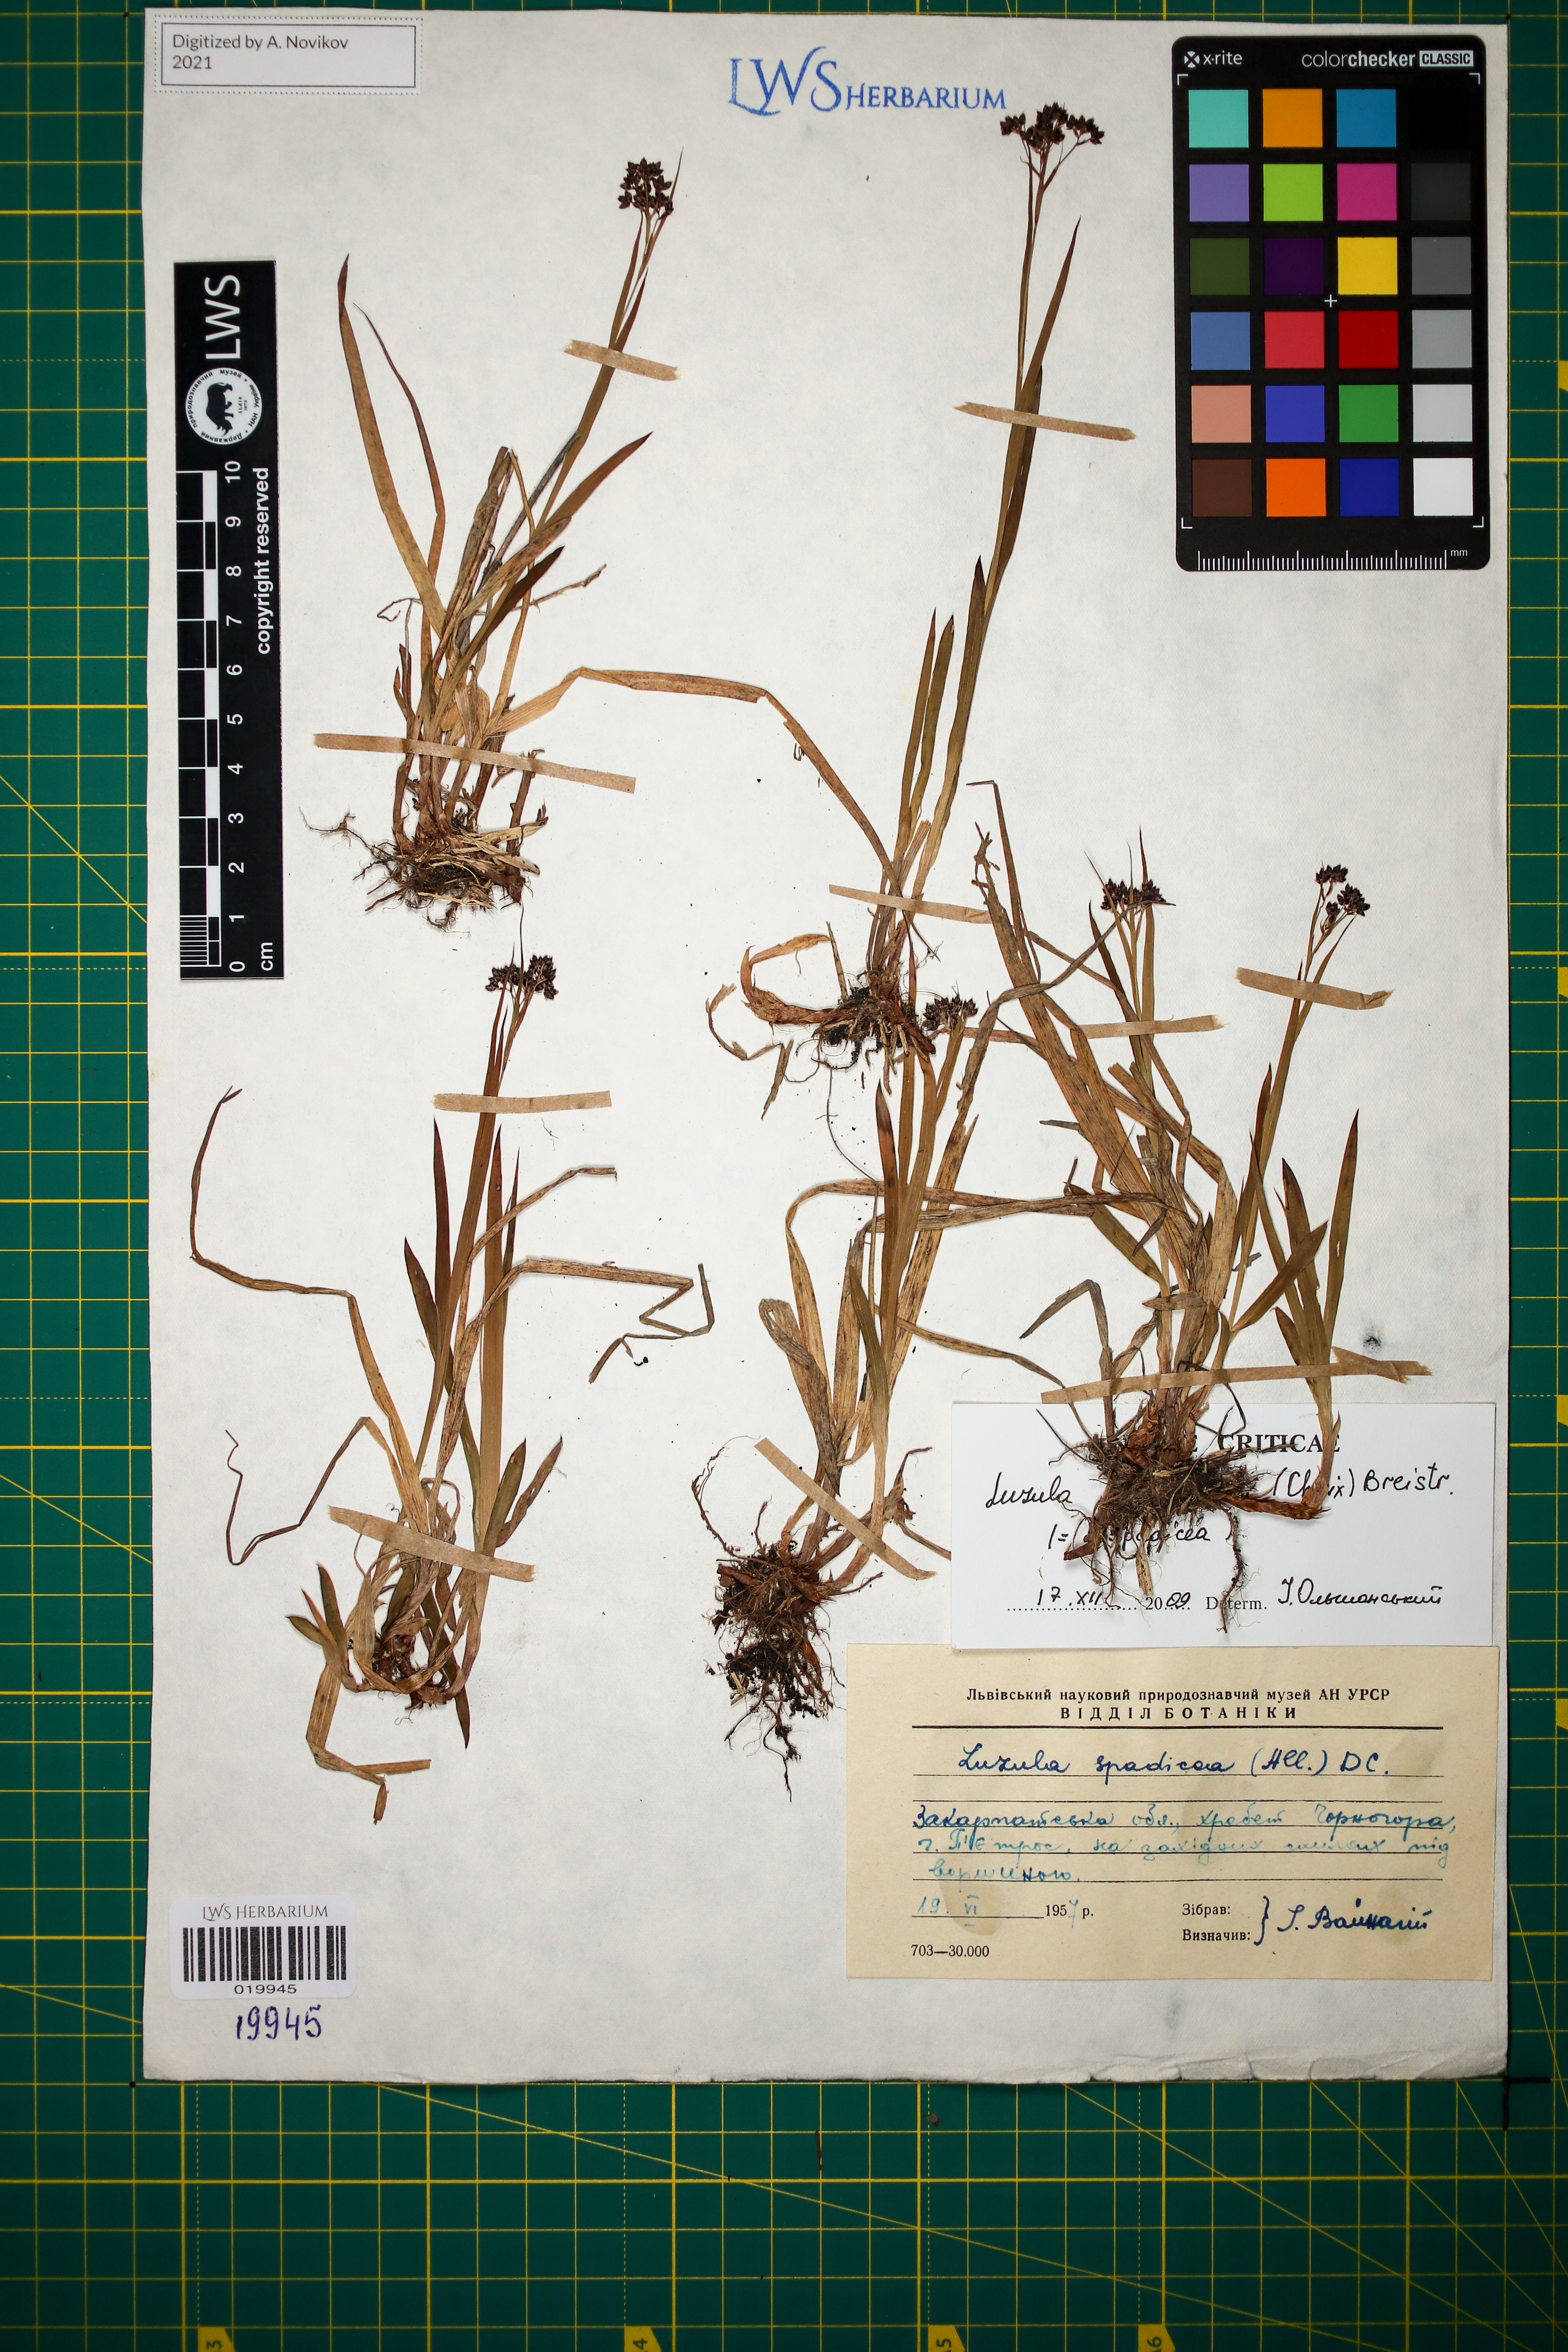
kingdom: Plantae
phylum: Tracheophyta
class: Liliopsida
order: Poales
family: Juncaceae
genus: Luzula
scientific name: Luzula alpinopilosa
